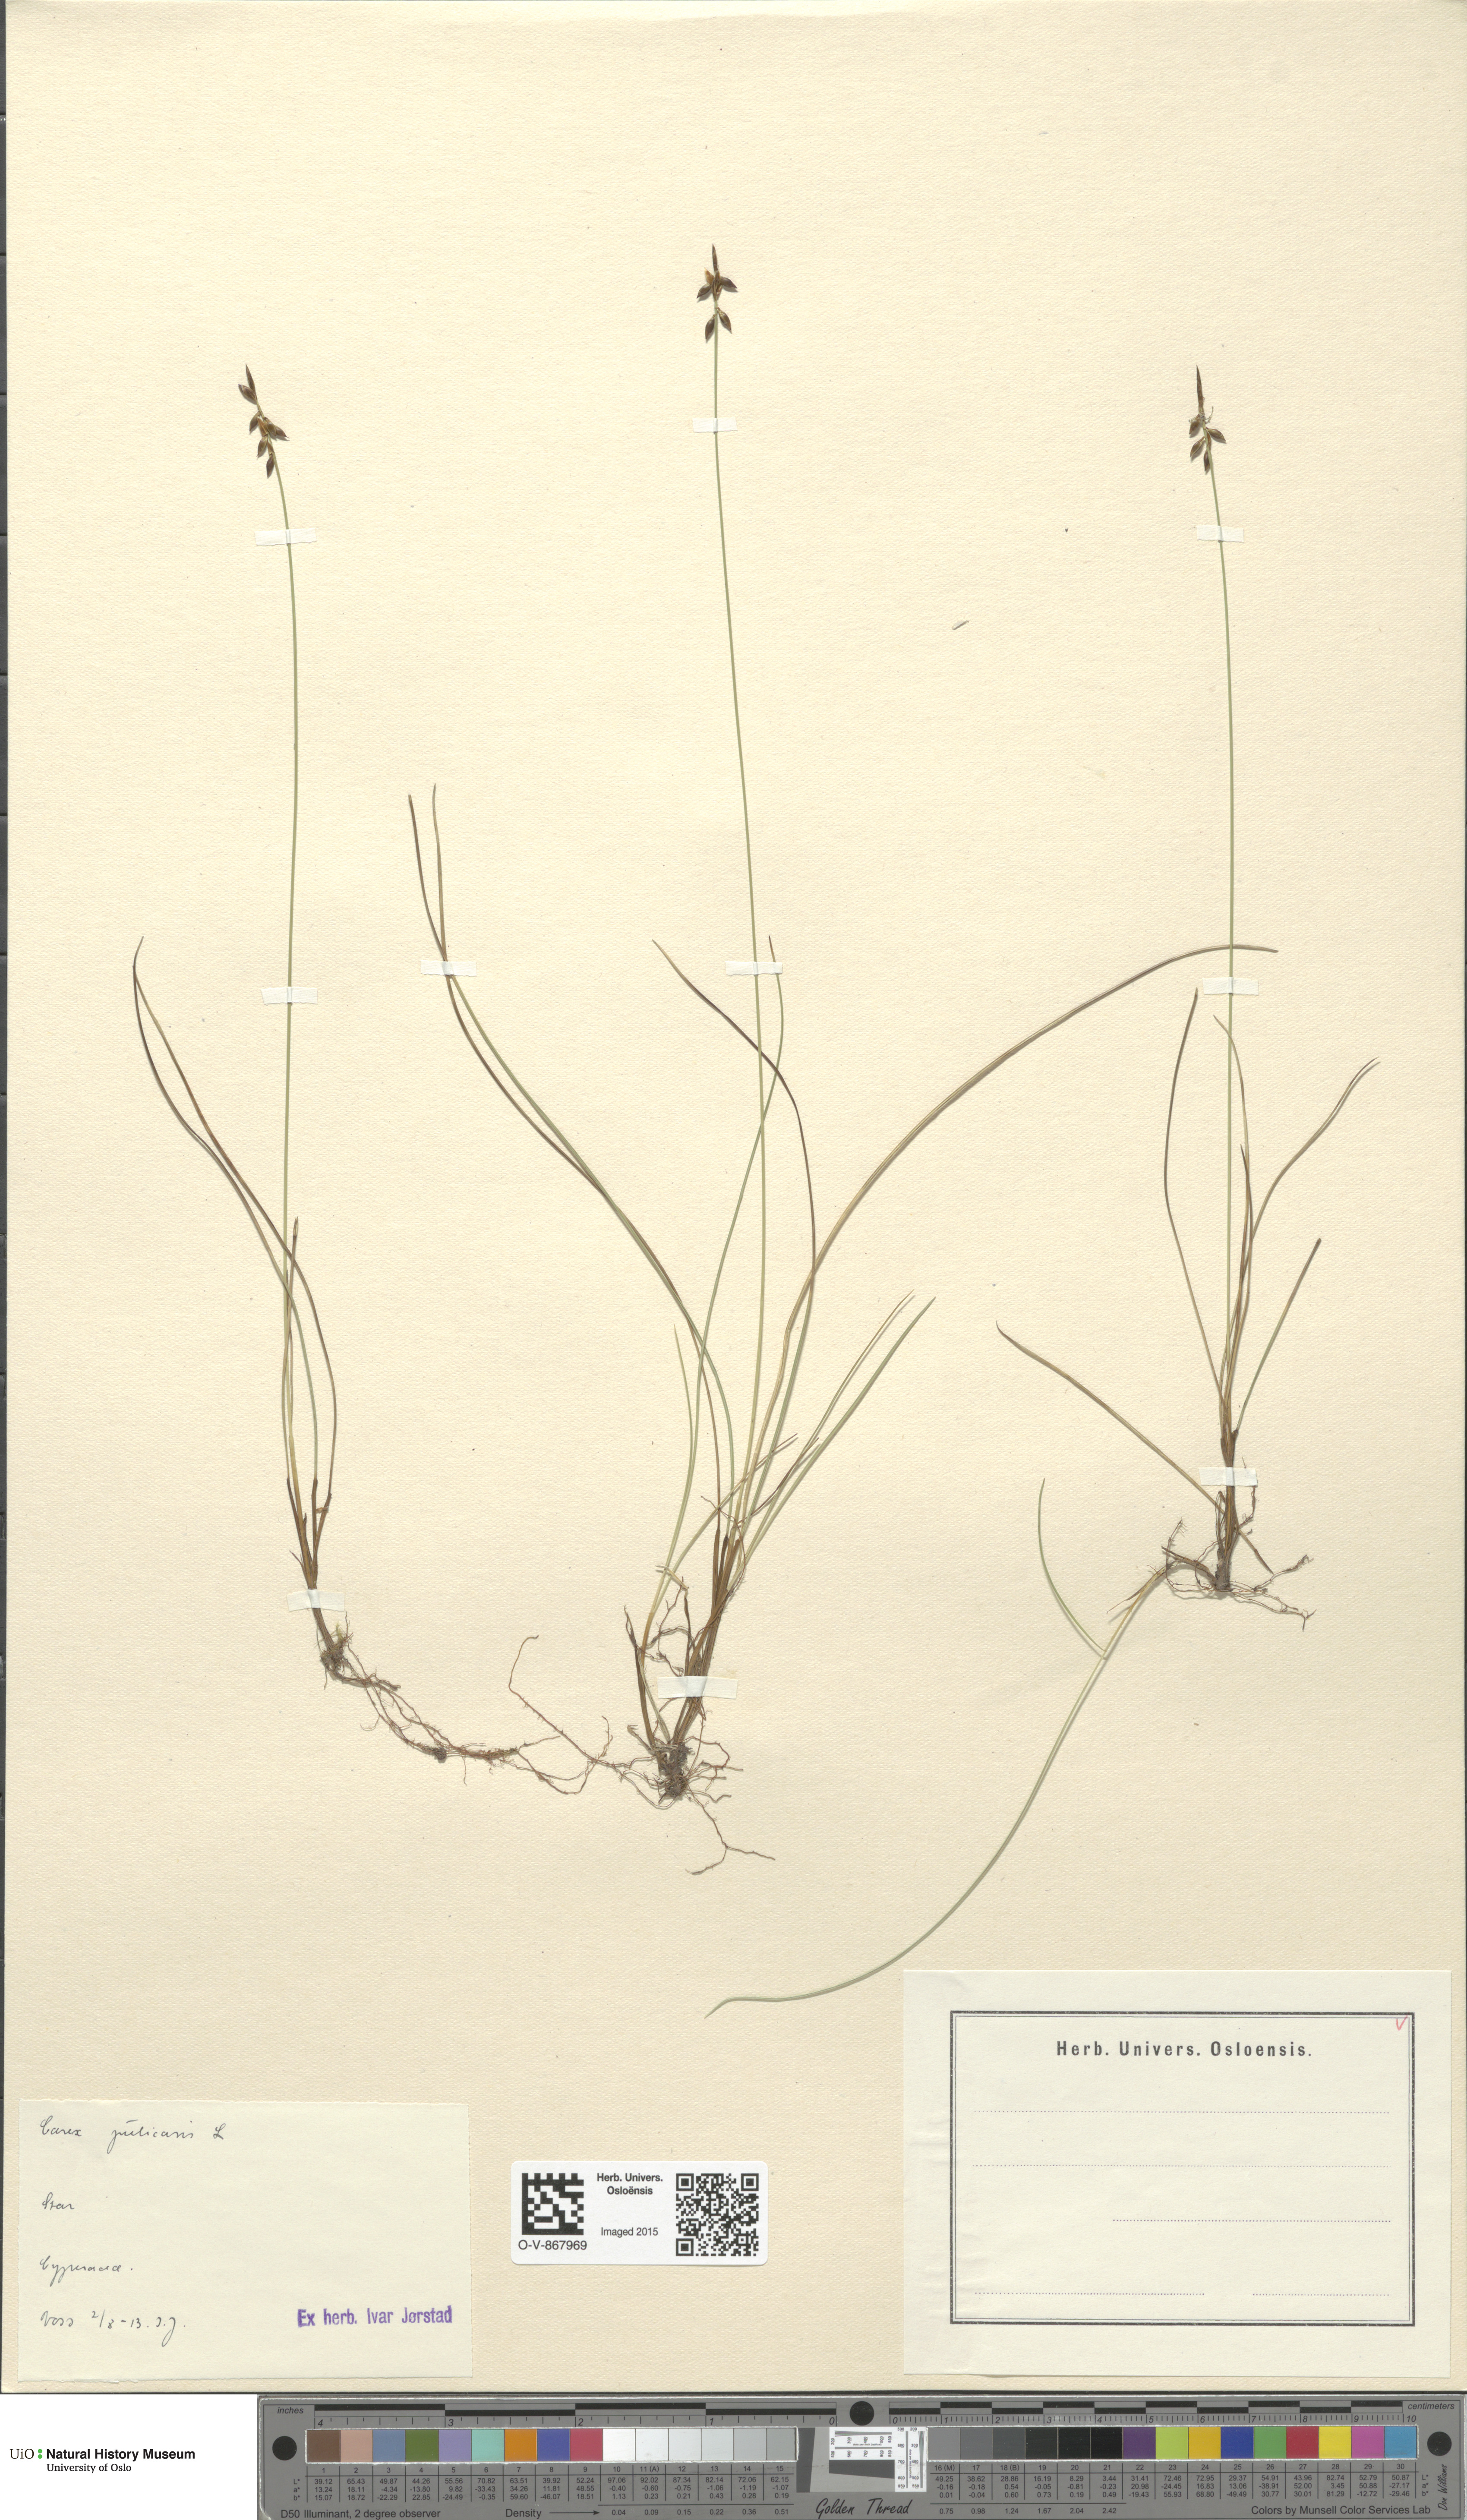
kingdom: Plantae
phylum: Tracheophyta
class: Liliopsida
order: Poales
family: Cyperaceae
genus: Carex
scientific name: Carex pulicaris
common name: Flea sedge
